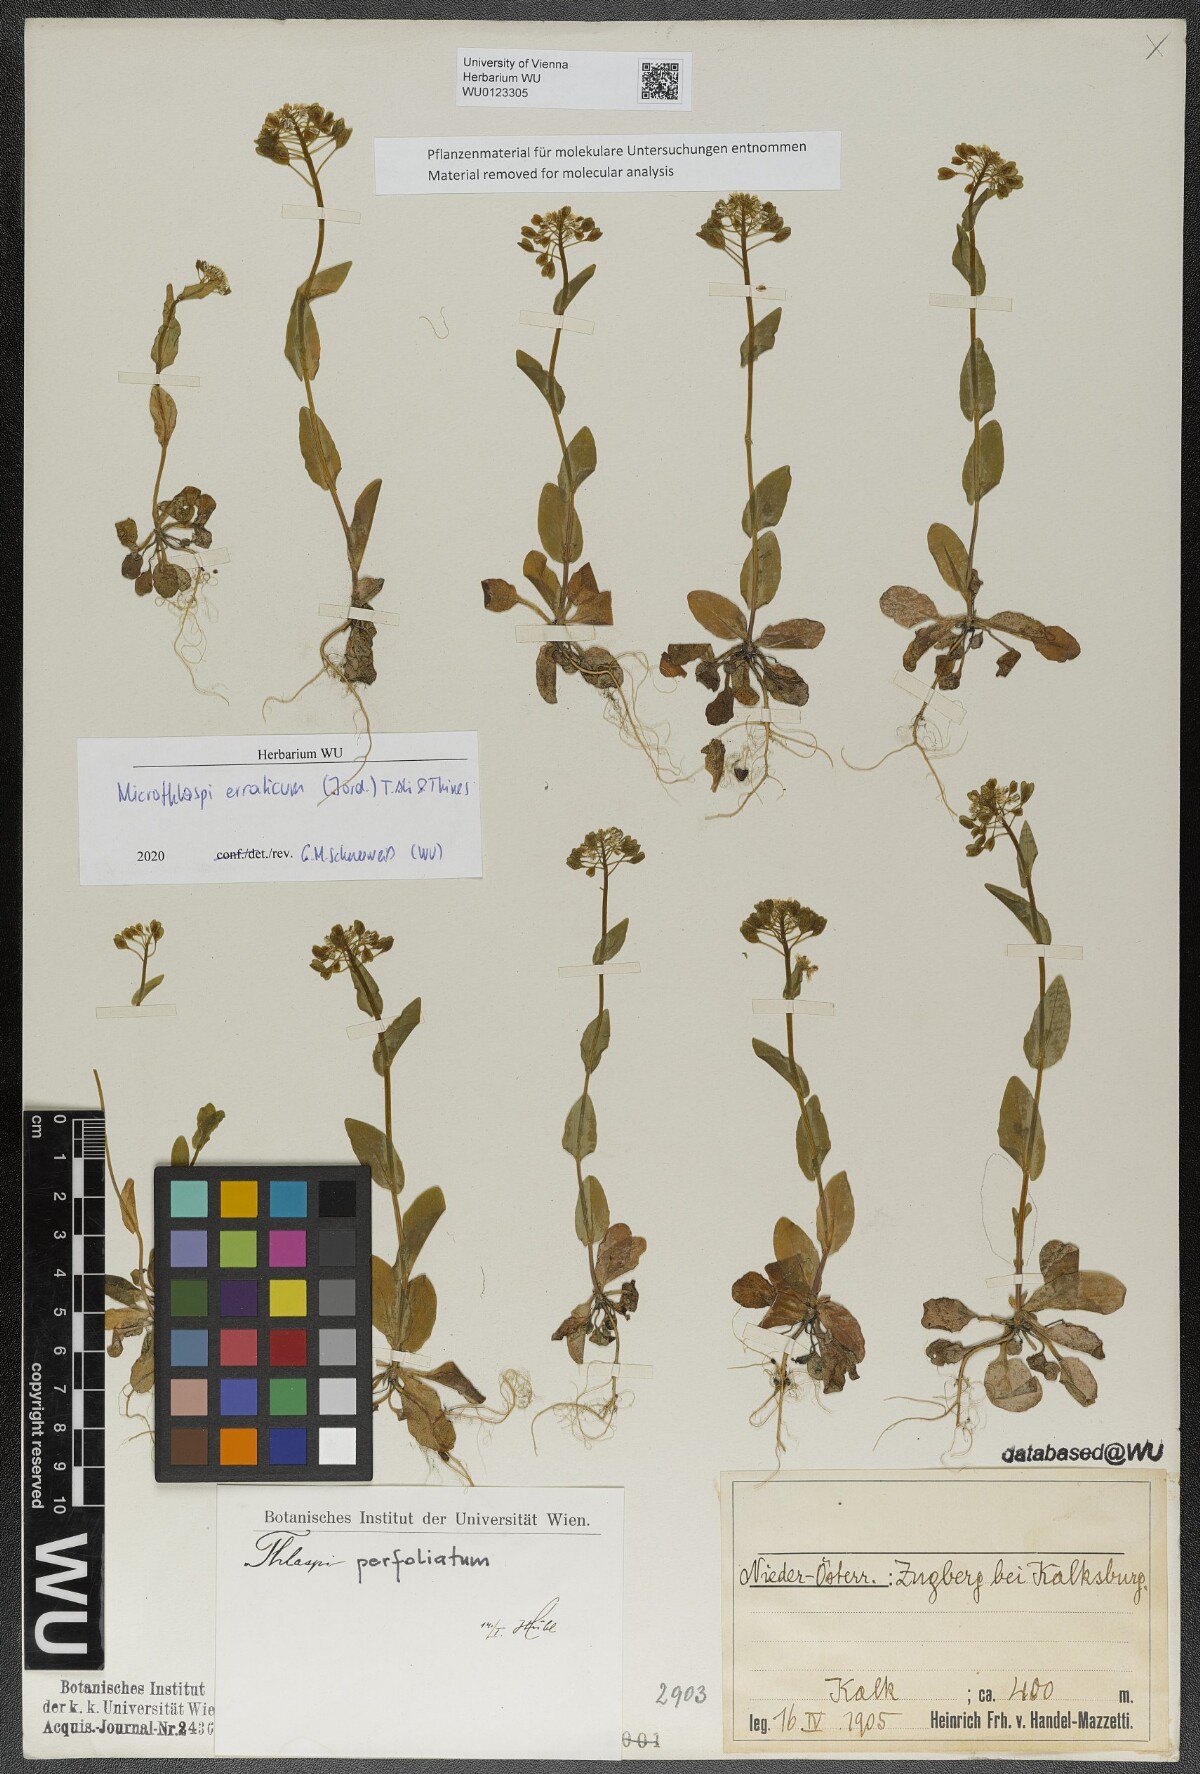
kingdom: Plantae
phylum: Tracheophyta
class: Magnoliopsida
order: Brassicales
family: Brassicaceae
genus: Noccaea
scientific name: Noccaea perfoliata
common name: Perfoliate pennycress
